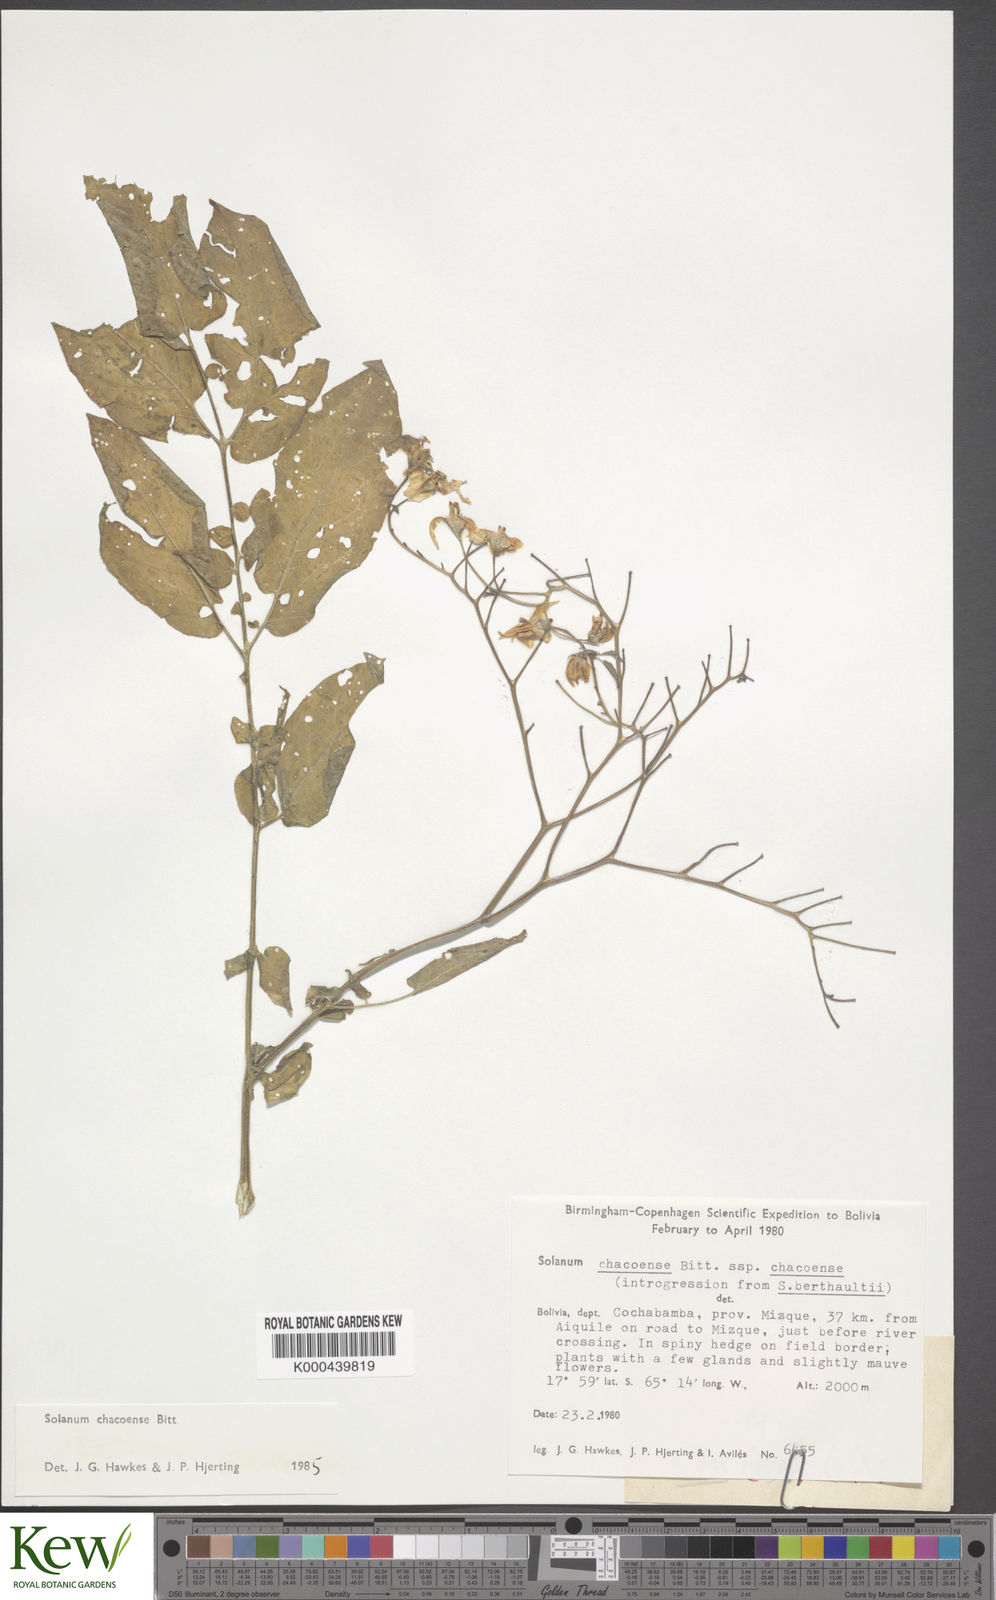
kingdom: Plantae
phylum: Tracheophyta
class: Magnoliopsida
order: Solanales
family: Solanaceae
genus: Solanum
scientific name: Solanum chacoense
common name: Chaco potato
